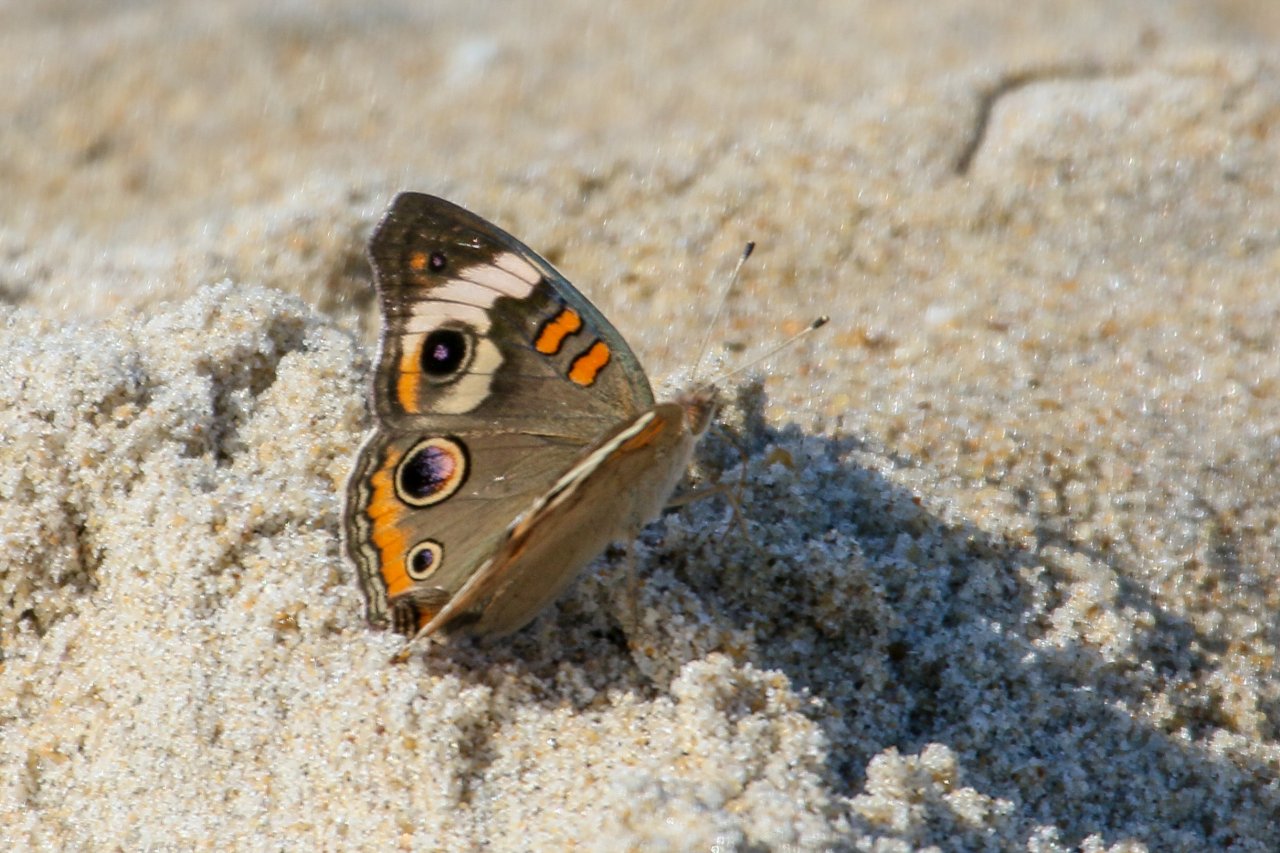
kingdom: Animalia
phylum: Arthropoda
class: Insecta
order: Lepidoptera
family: Nymphalidae
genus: Junonia
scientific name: Junonia coenia
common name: Common Buckeye
